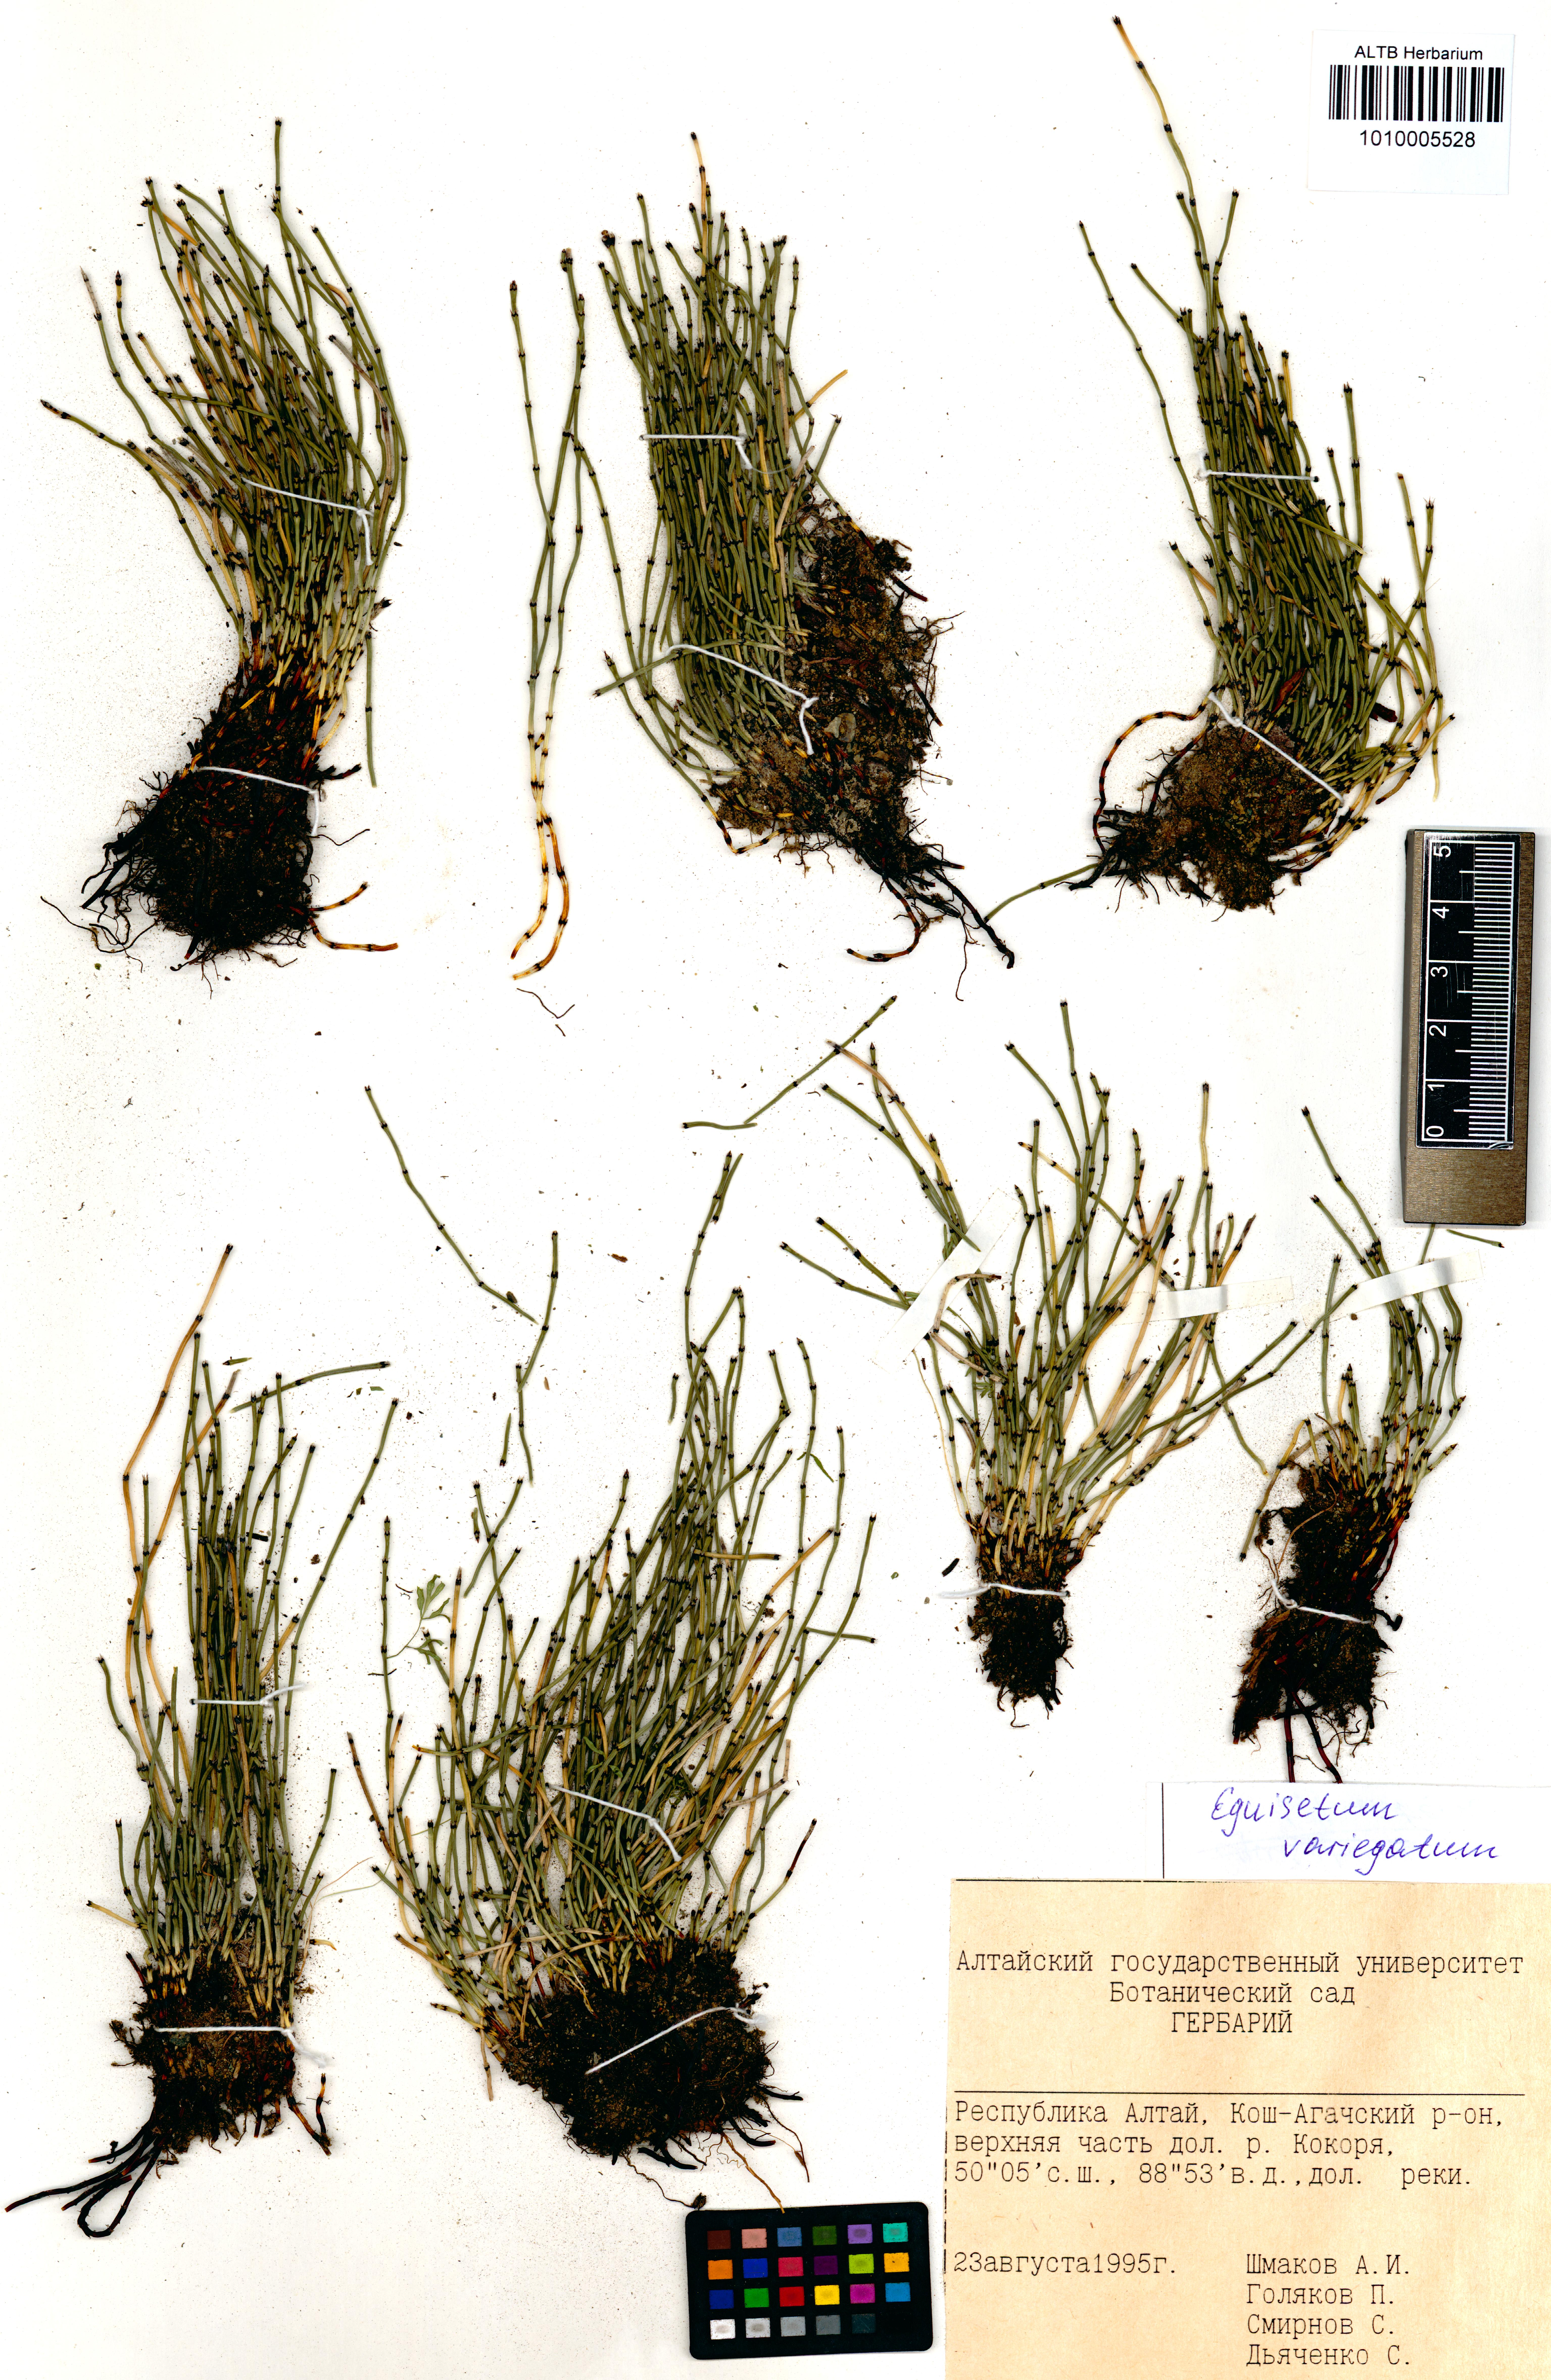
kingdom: Plantae
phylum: Tracheophyta
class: Polypodiopsida
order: Equisetales
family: Equisetaceae
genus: Equisetum
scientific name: Equisetum variegatum
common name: Variegated horsetail
